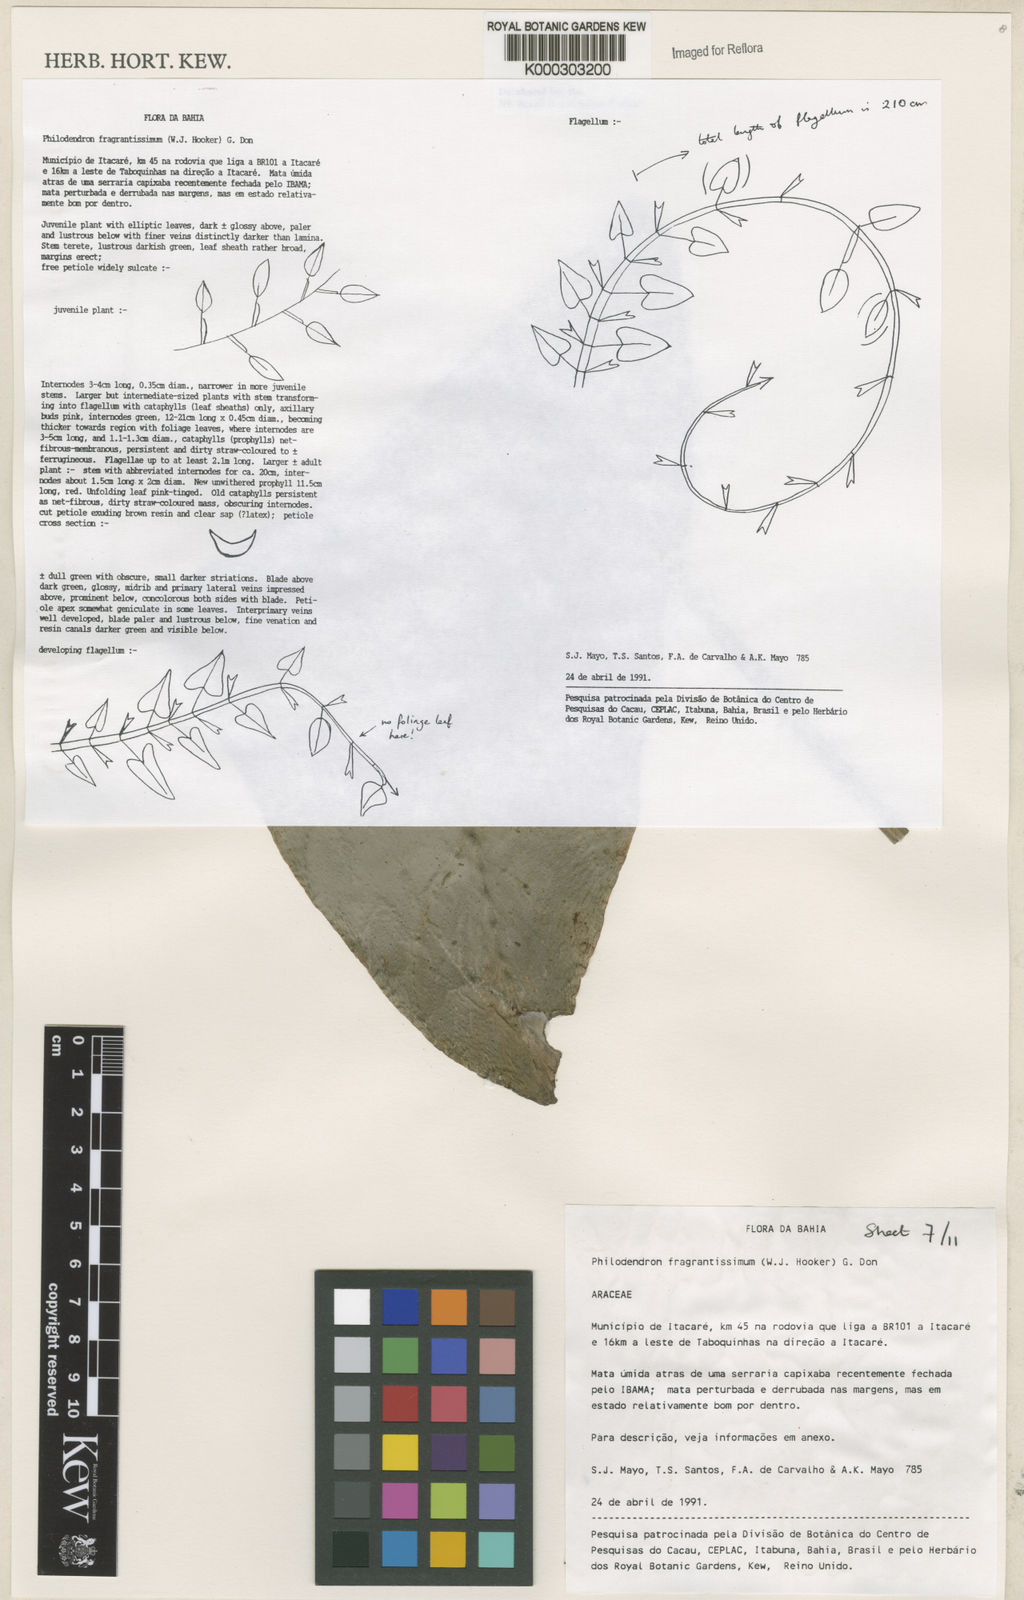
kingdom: Plantae
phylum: Tracheophyta
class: Liliopsida
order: Alismatales
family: Araceae
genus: Philodendron
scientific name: Philodendron fragrantissimum
